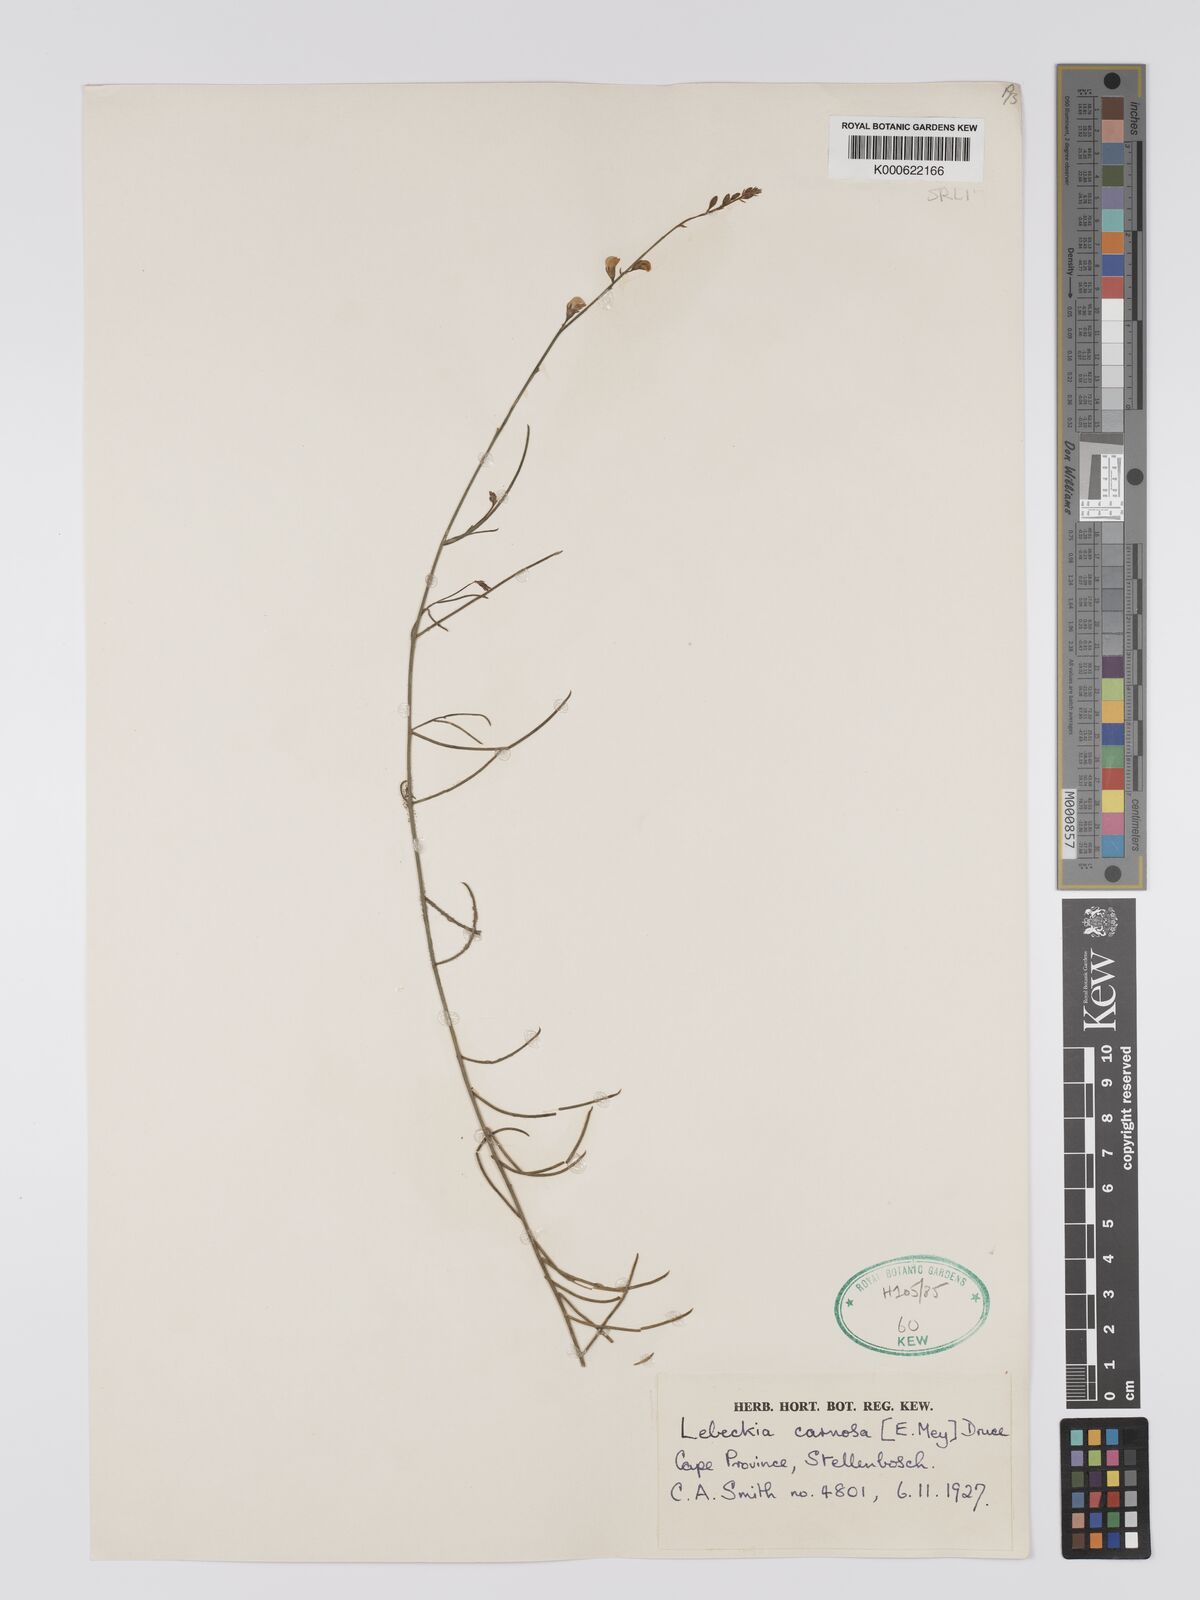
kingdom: Plantae
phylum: Tracheophyta
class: Magnoliopsida
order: Fabales
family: Fabaceae
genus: Lebeckia
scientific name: Lebeckia contaminata
